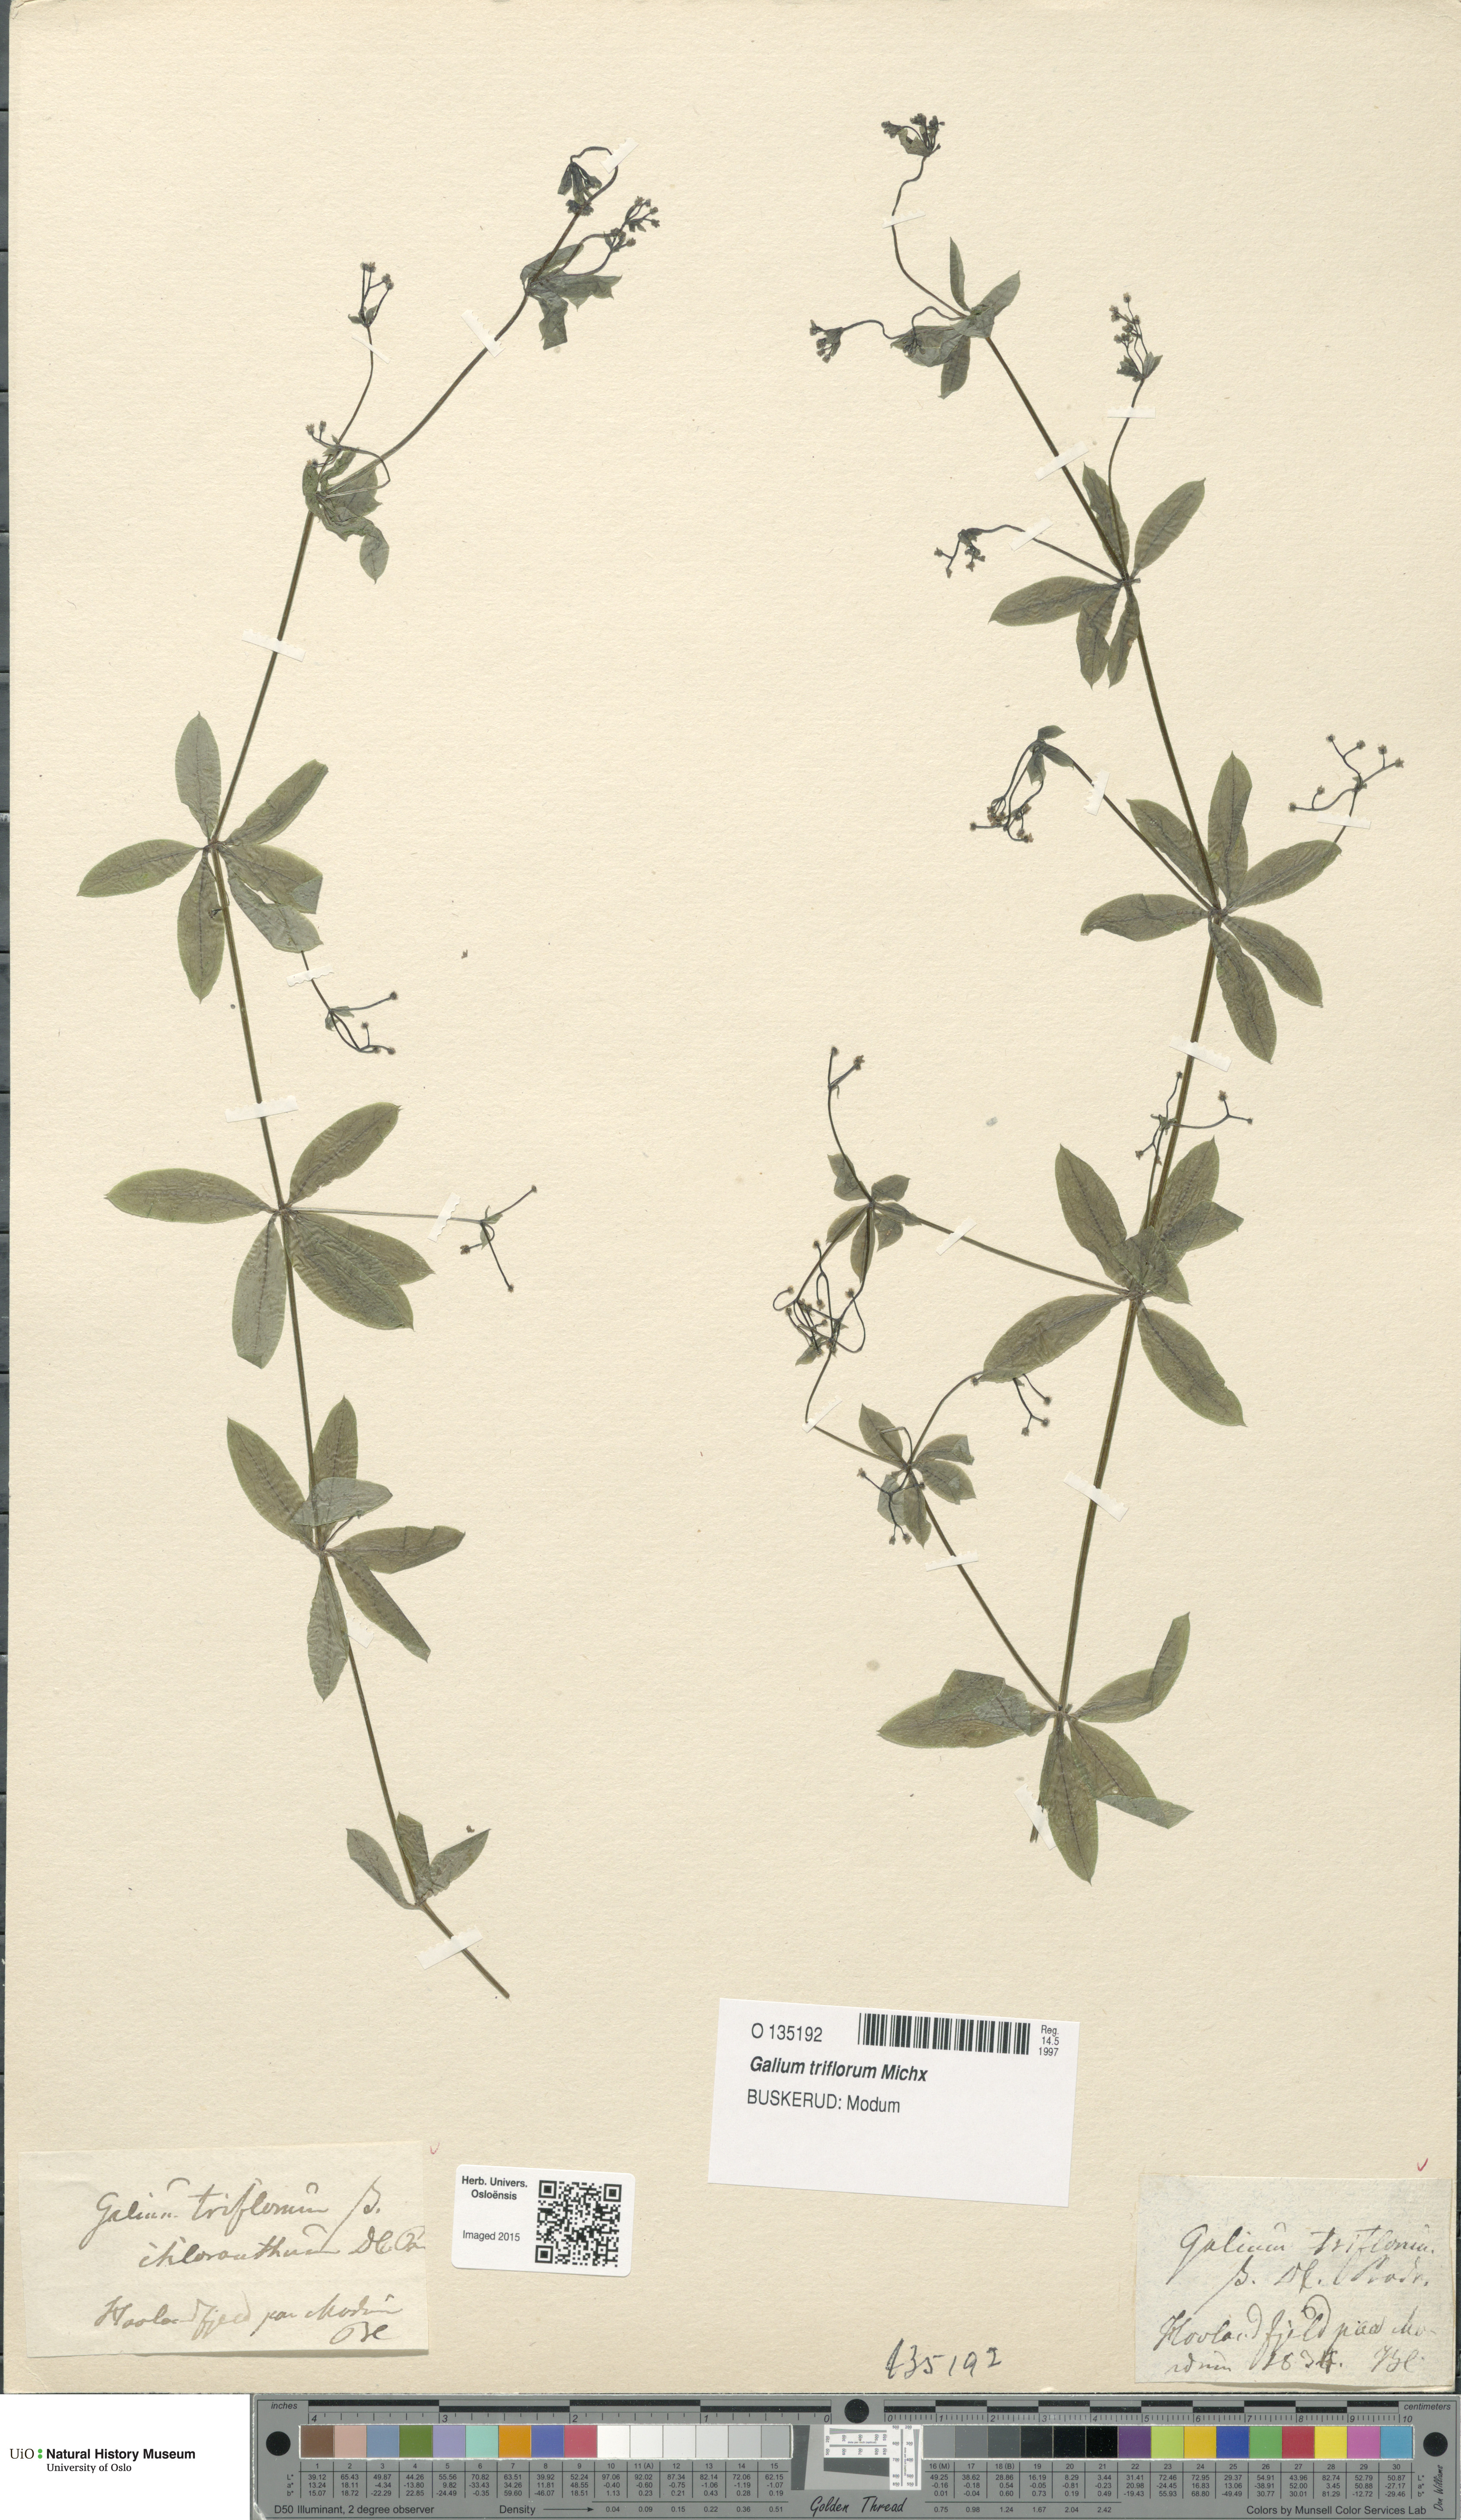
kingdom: Plantae
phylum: Tracheophyta
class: Magnoliopsida
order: Gentianales
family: Rubiaceae
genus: Galium
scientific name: Galium triflorum
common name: Fragrant bedstraw
